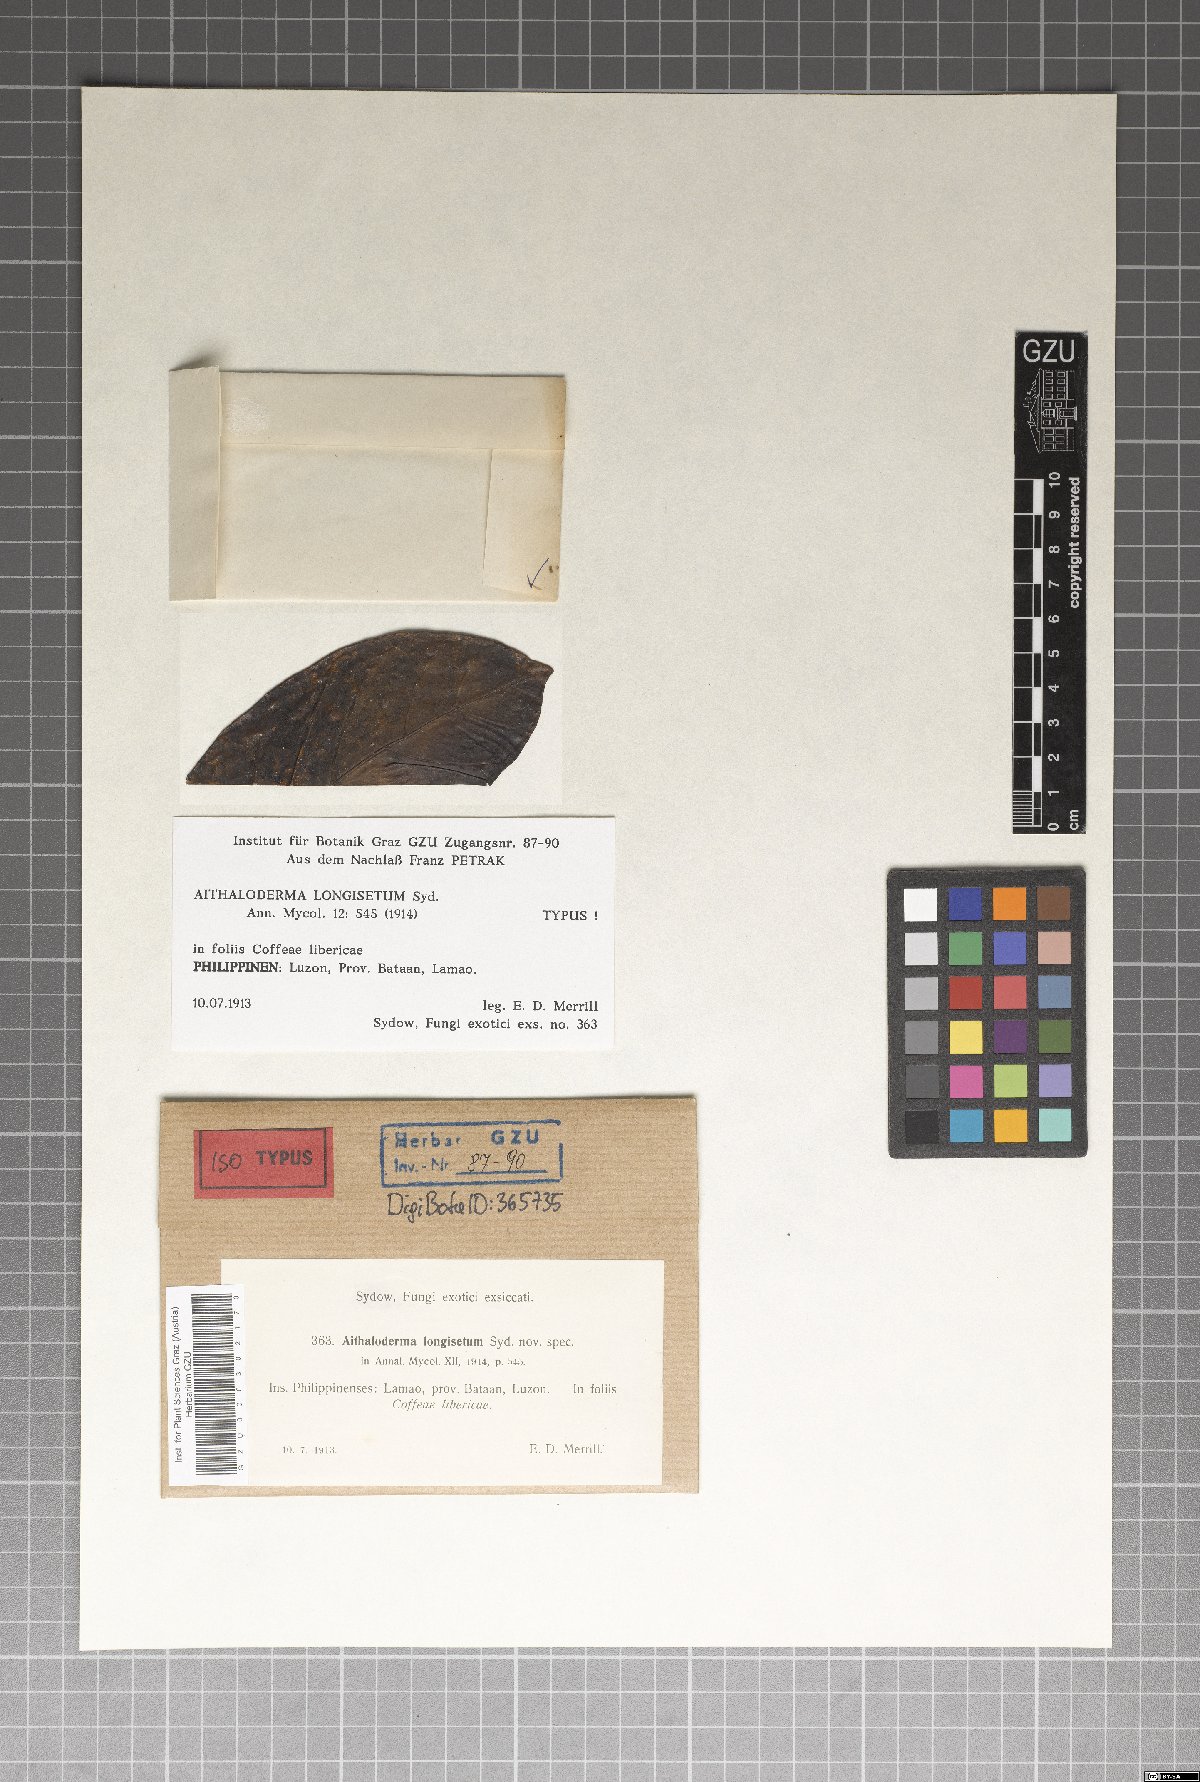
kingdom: Fungi
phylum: Ascomycota
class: Dothideomycetes
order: Capnodiales
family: Capnodiaceae
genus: Aithaloderma
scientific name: Aithaloderma longisetum
